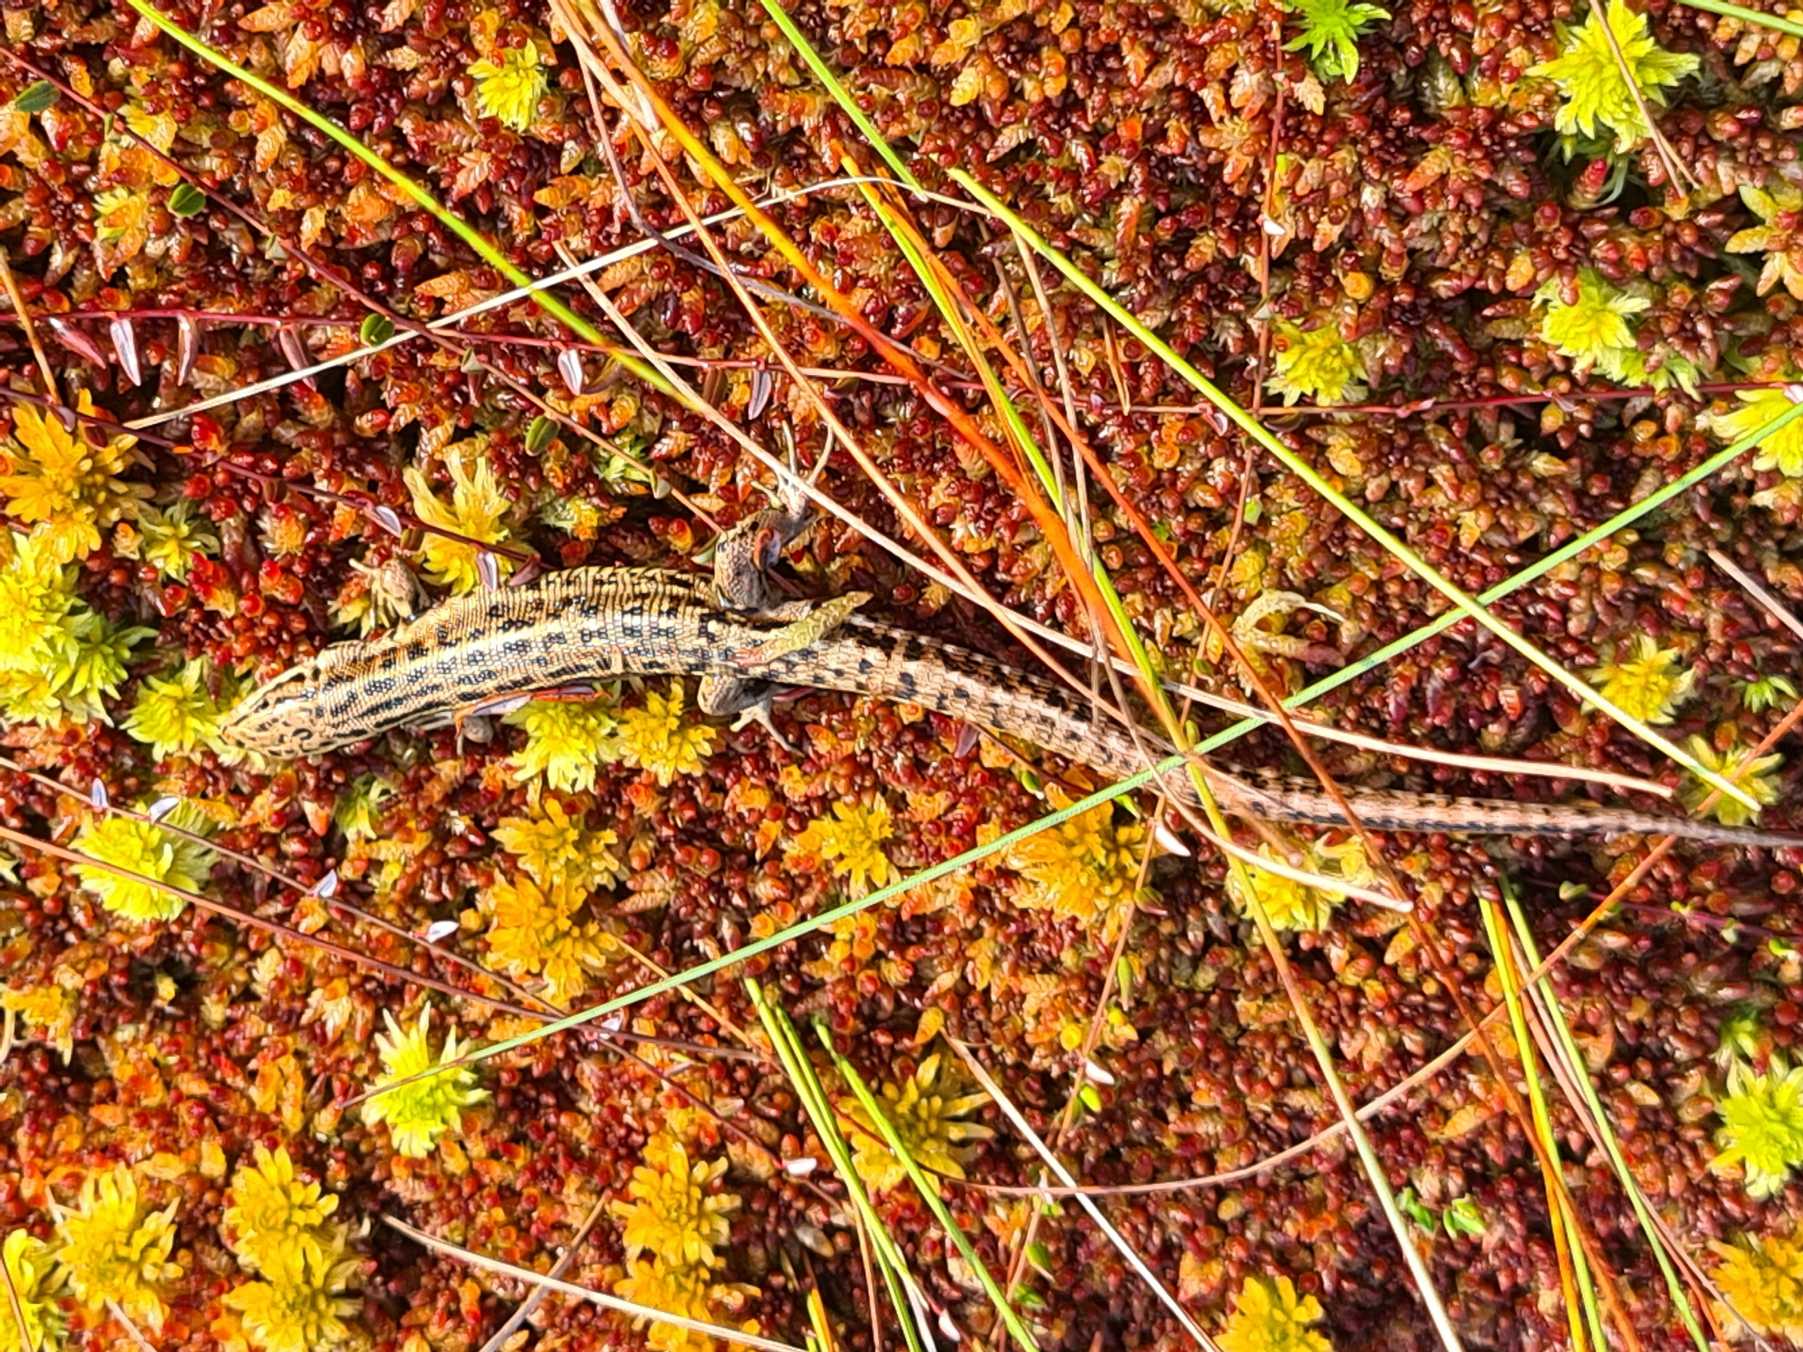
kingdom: Animalia
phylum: Chordata
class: Squamata
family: Lacertidae
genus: Zootoca
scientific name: Zootoca vivipara
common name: Skovfirben
